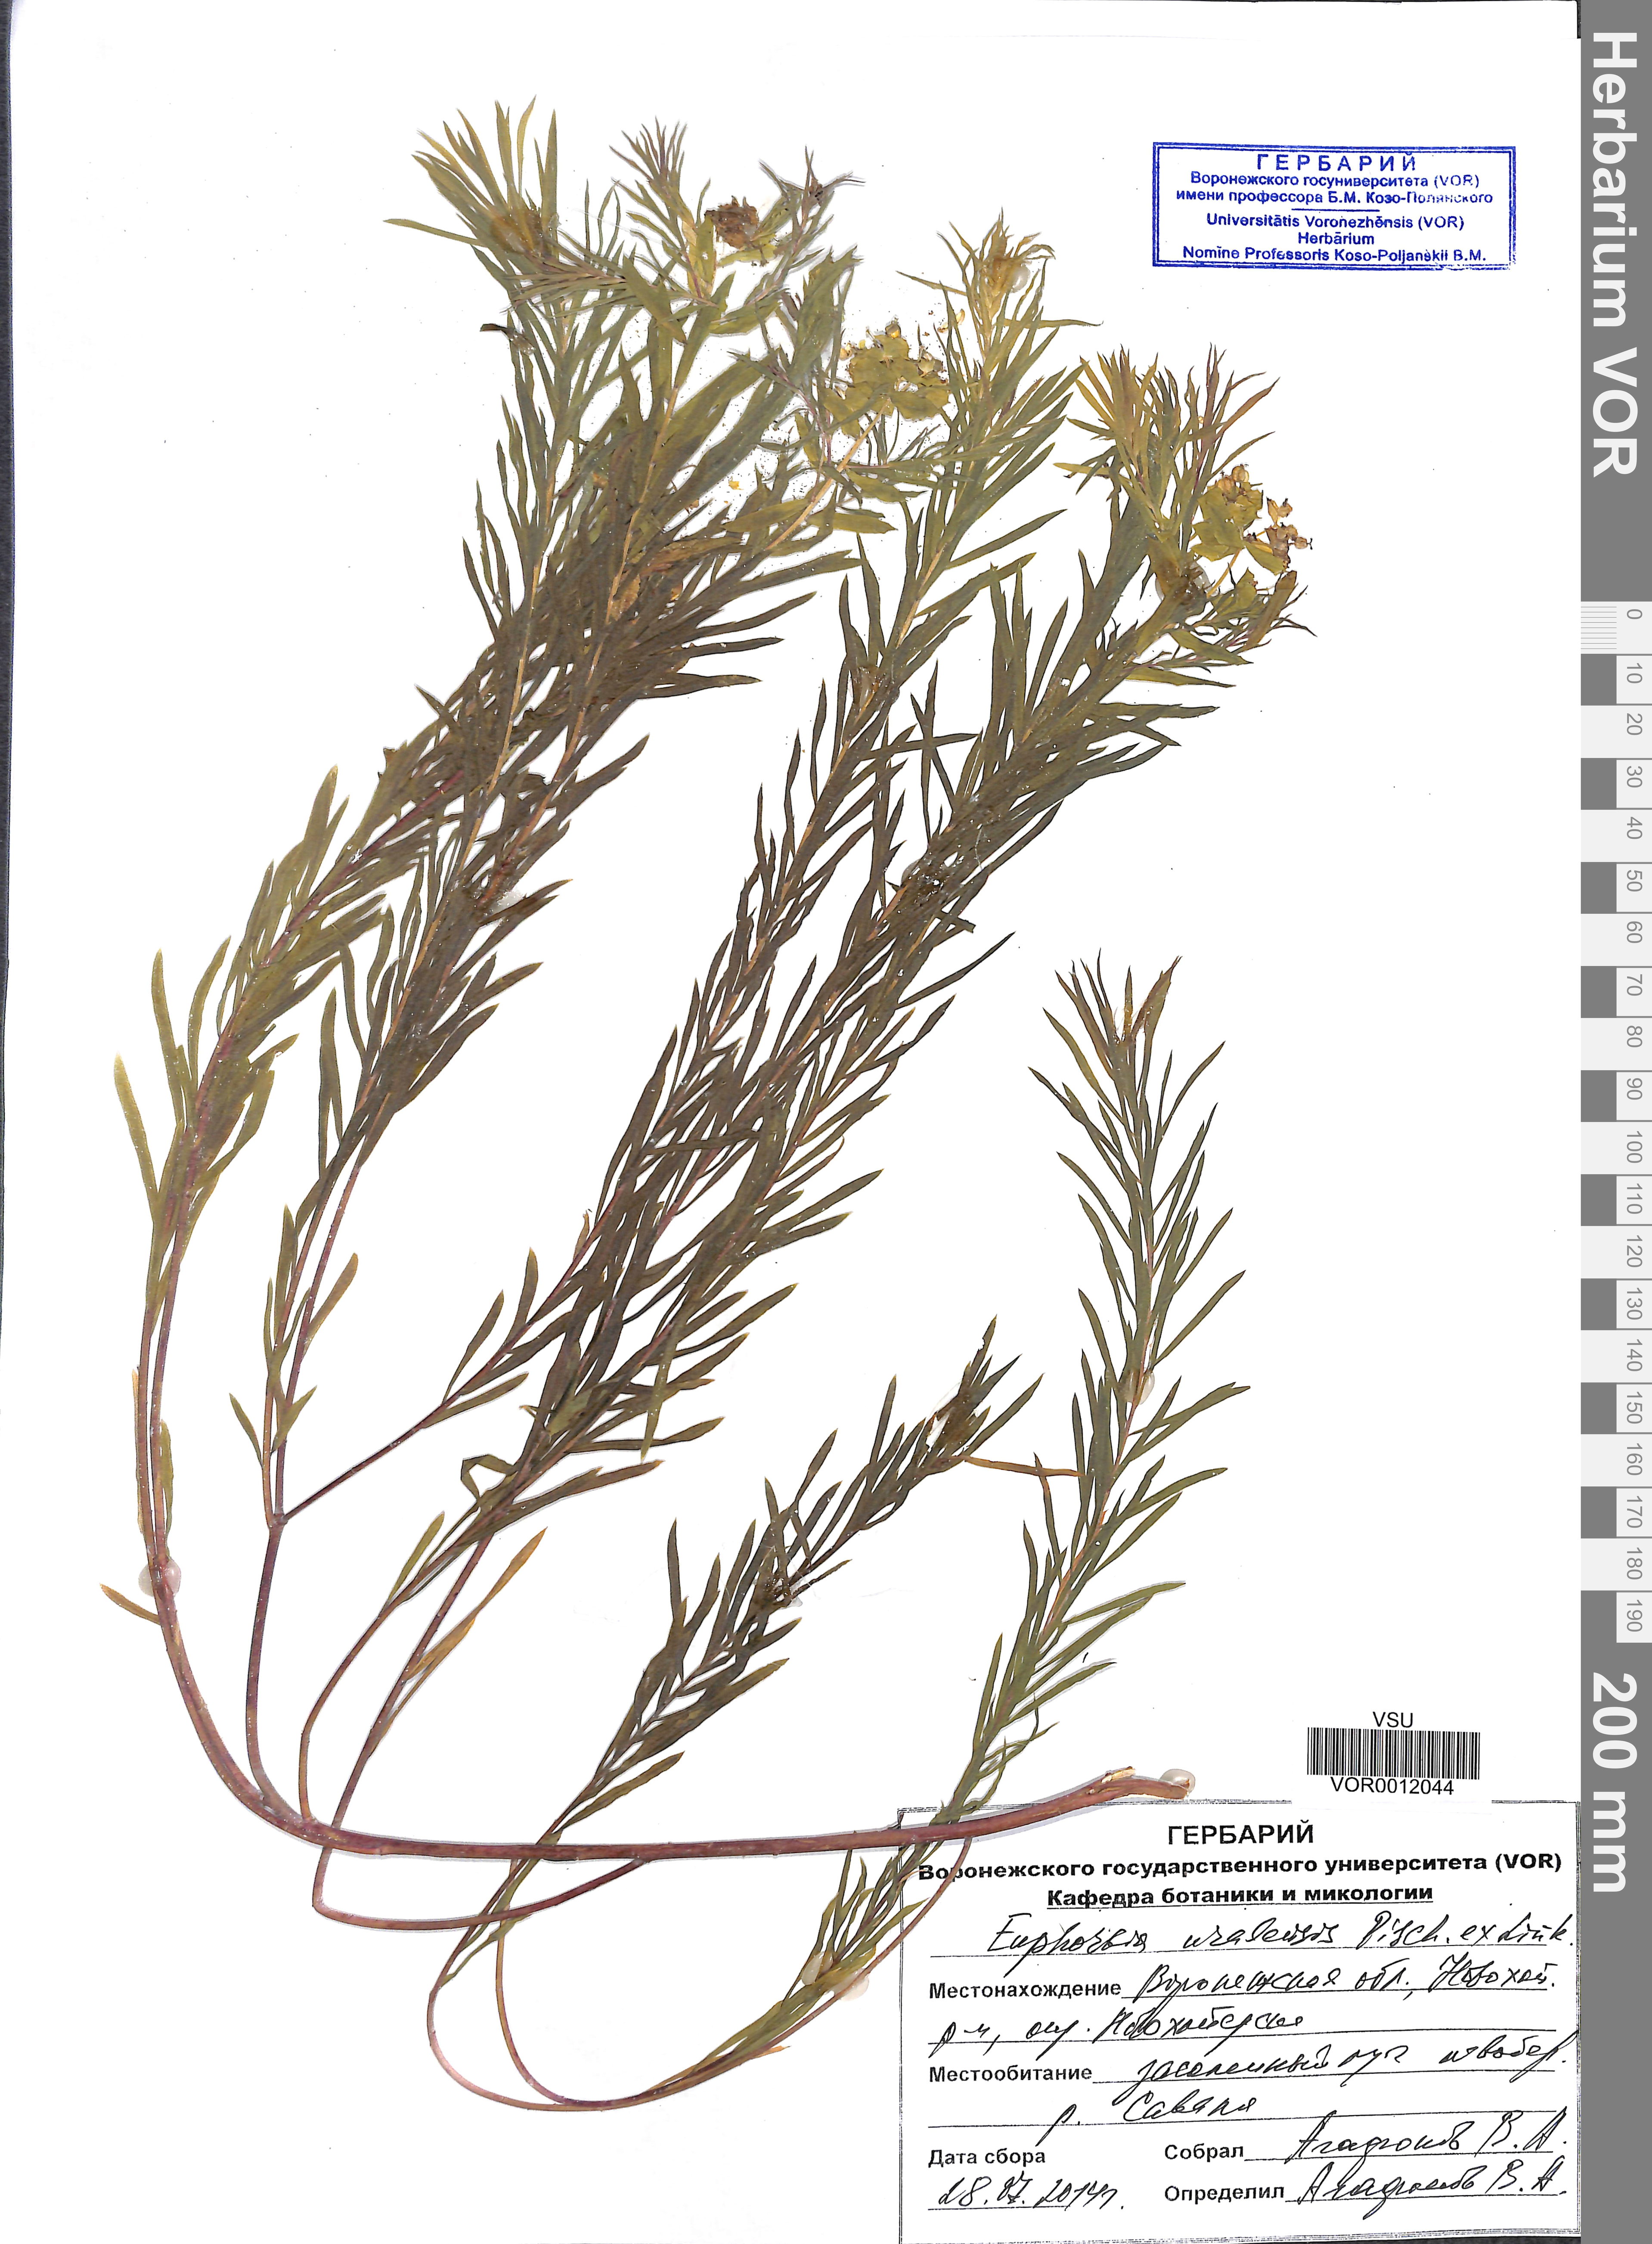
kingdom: Plantae
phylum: Tracheophyta
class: Magnoliopsida
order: Malpighiales
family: Euphorbiaceae
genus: Euphorbia
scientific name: Euphorbia uralensis
